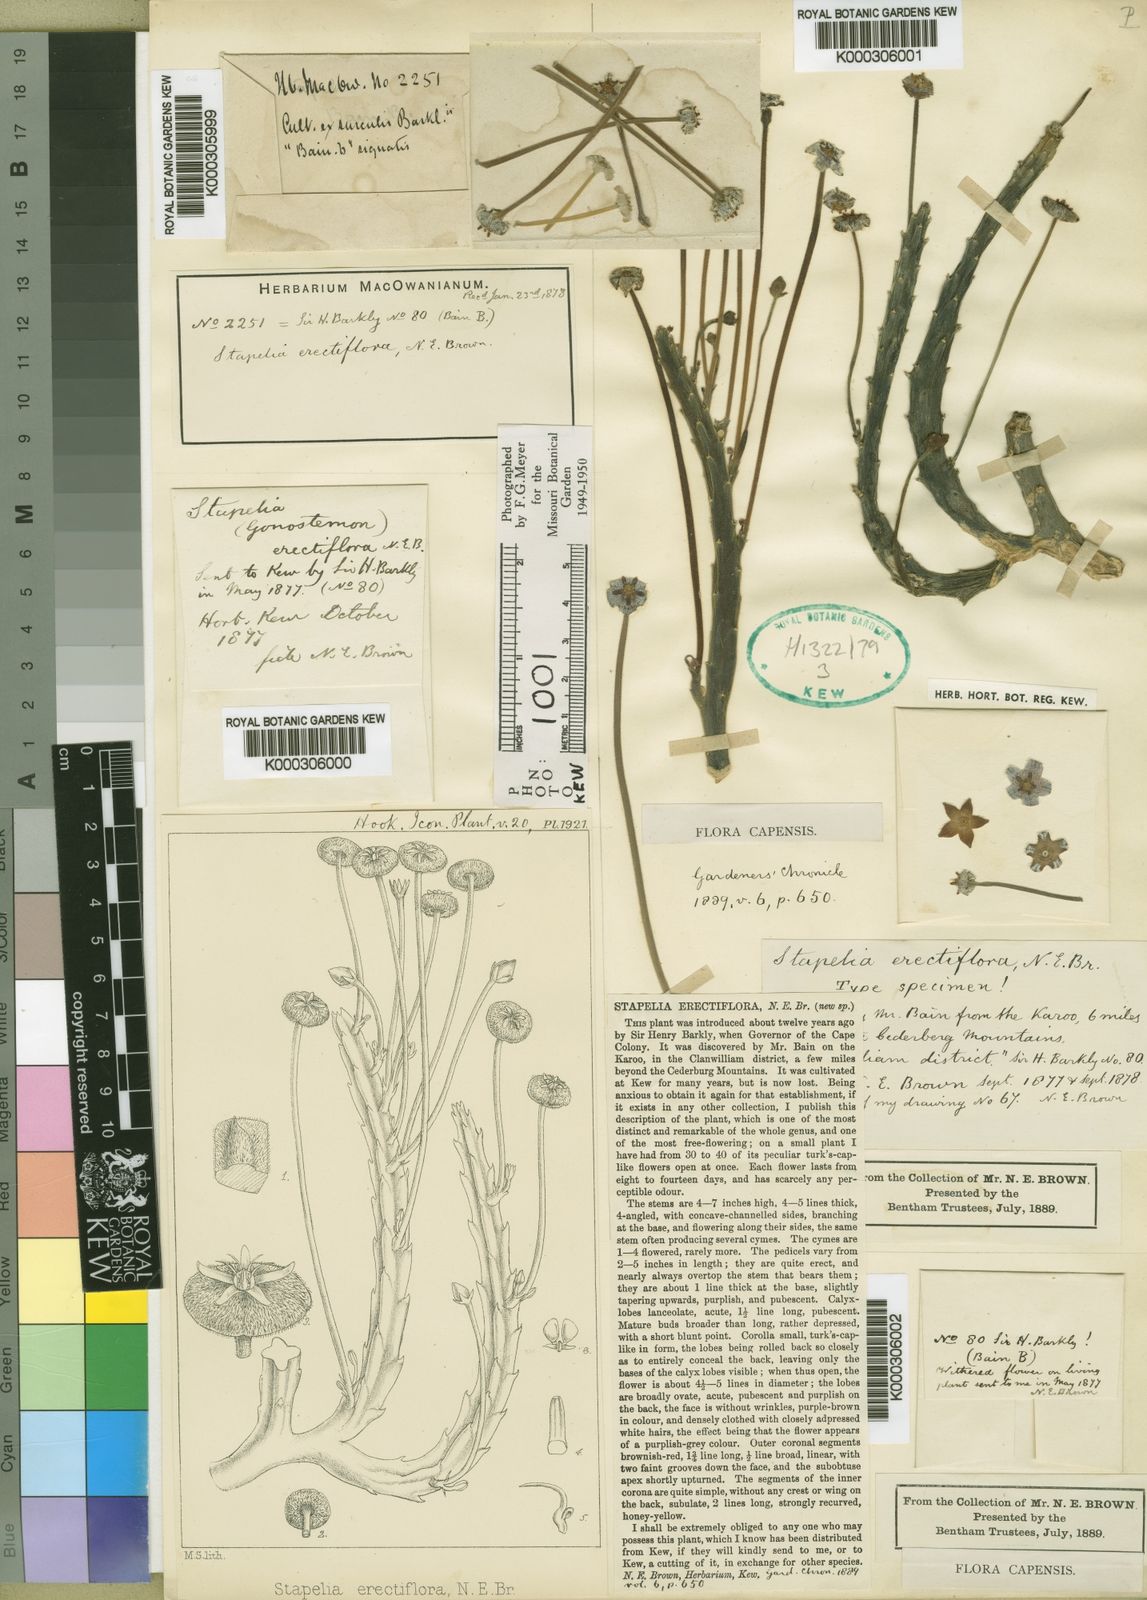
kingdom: Plantae
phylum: Tracheophyta
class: Magnoliopsida
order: Gentianales
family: Apocynaceae
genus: Ceropegia
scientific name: Ceropegia erectiflora
